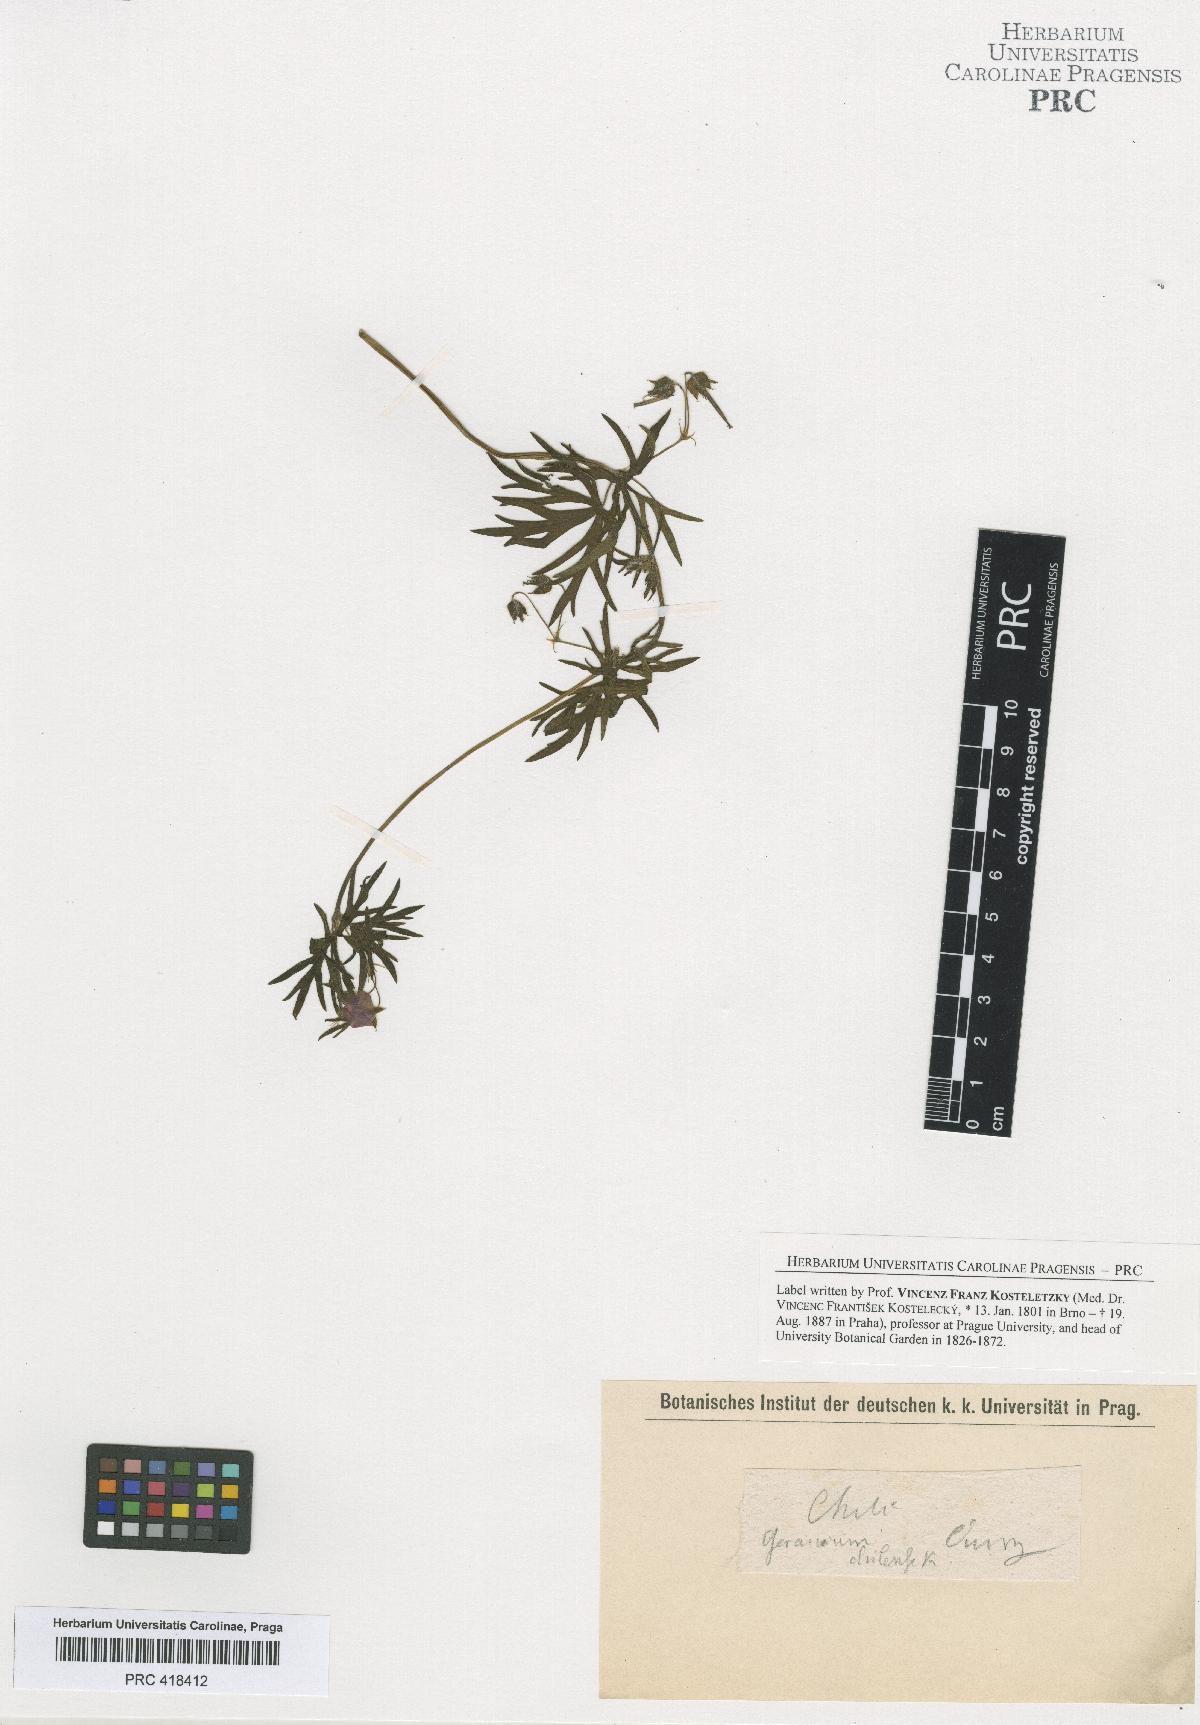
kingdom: Plantae
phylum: Tracheophyta
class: Magnoliopsida
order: Geraniales
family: Geraniaceae
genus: Geranium
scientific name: Geranium skottsbergii
